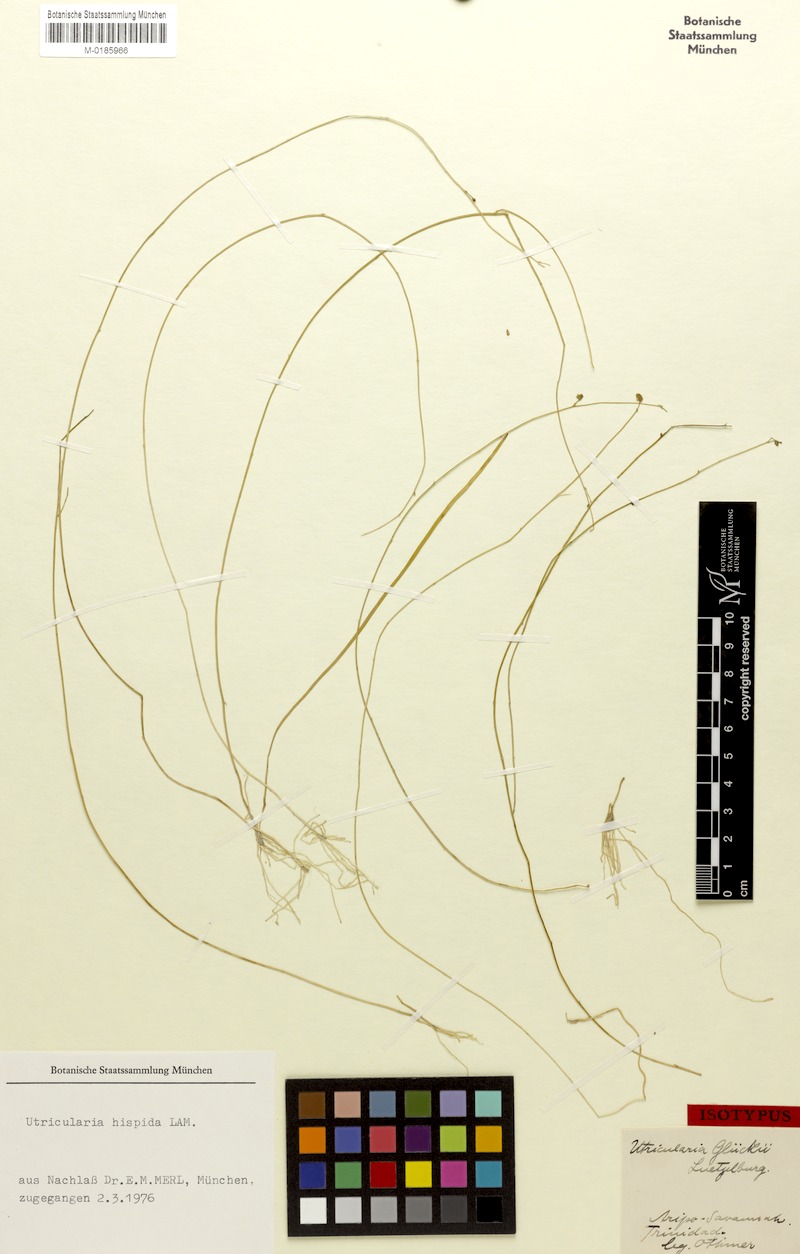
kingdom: Plantae
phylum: Tracheophyta
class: Magnoliopsida
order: Lamiales
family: Lentibulariaceae
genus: Utricularia
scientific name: Utricularia hispida
